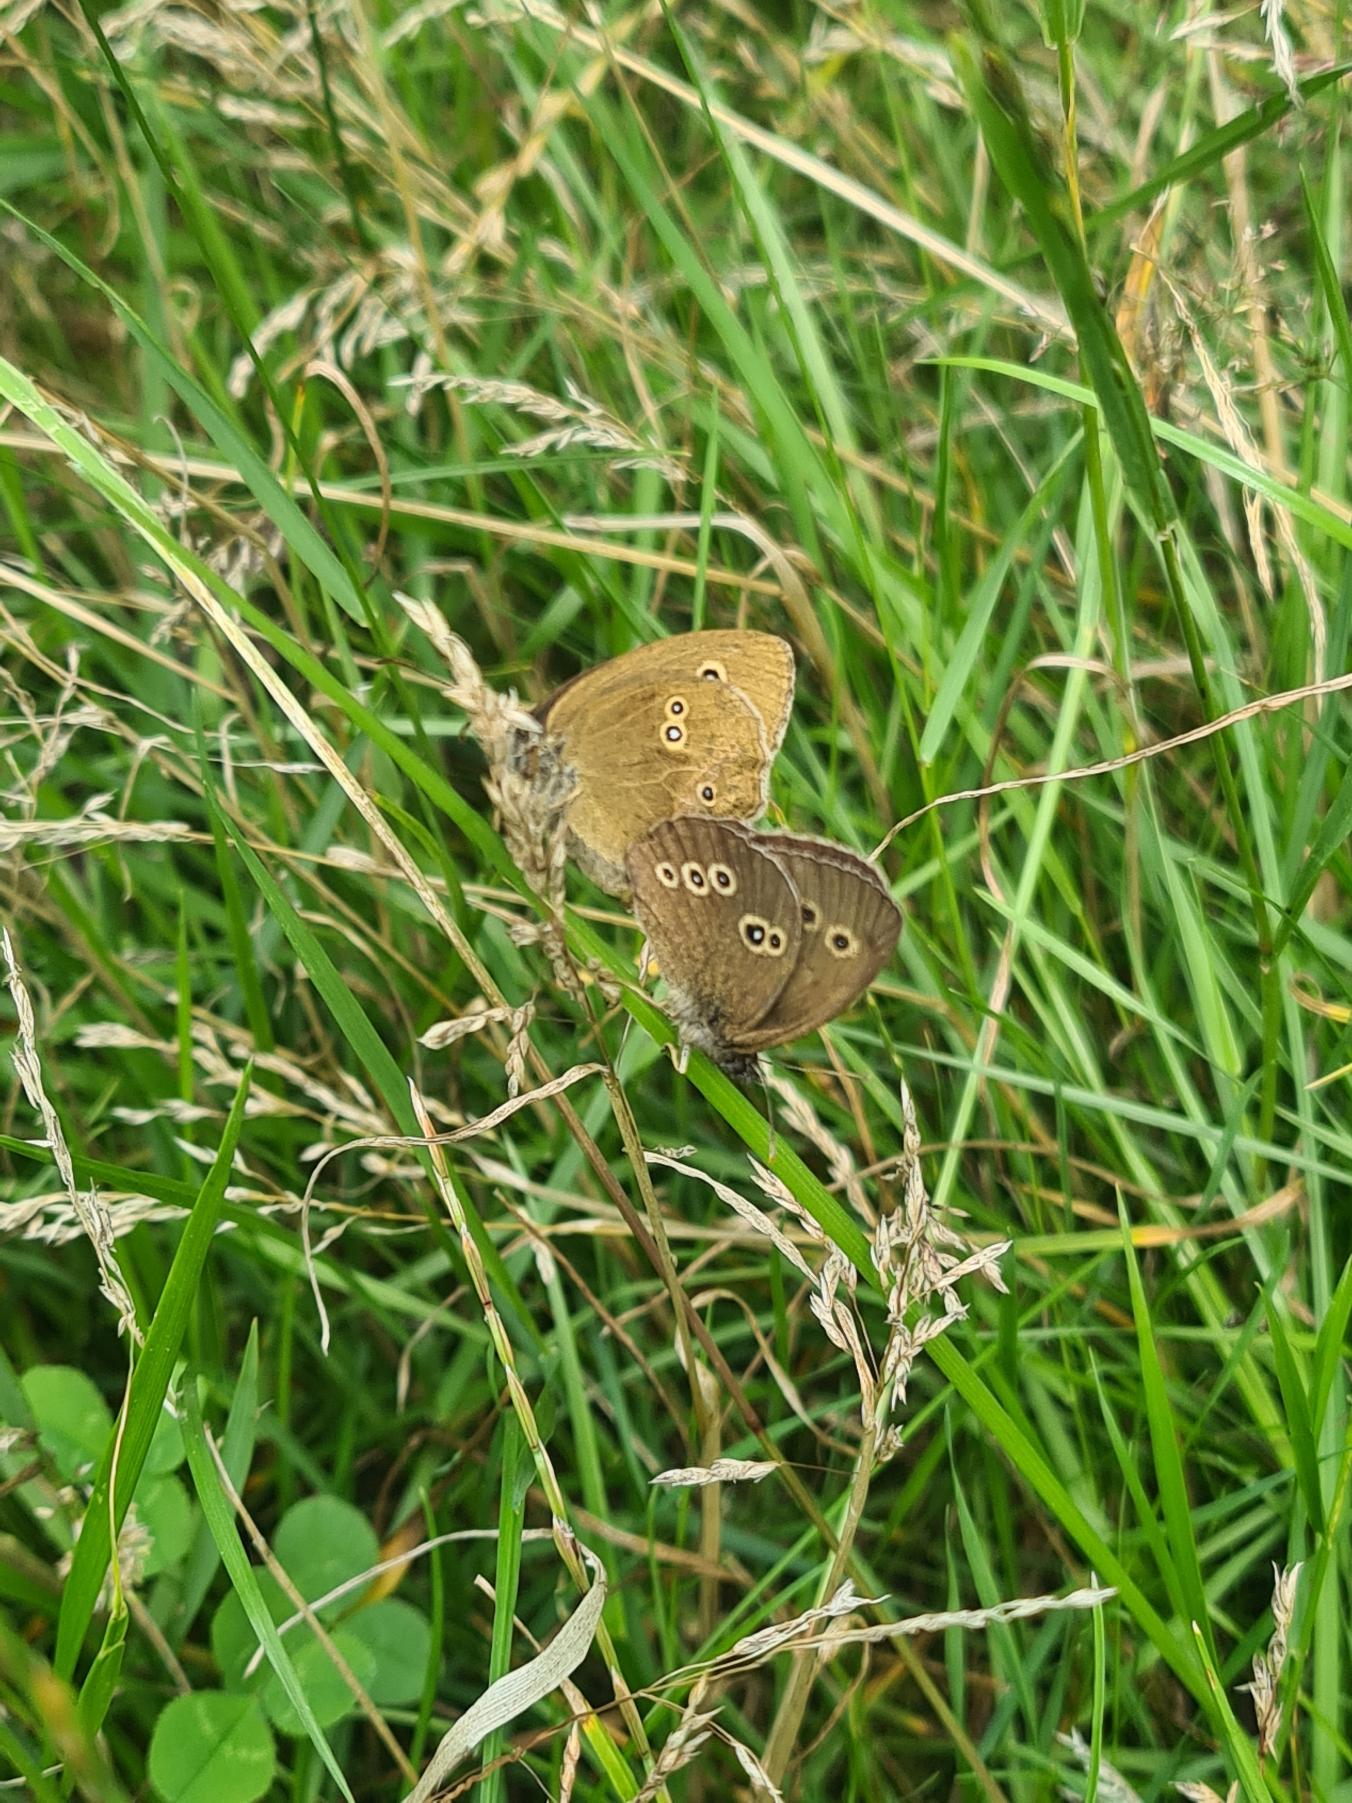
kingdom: Animalia
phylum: Arthropoda
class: Insecta
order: Lepidoptera
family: Nymphalidae
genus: Aphantopus
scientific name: Aphantopus hyperantus
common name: Engrandøje
